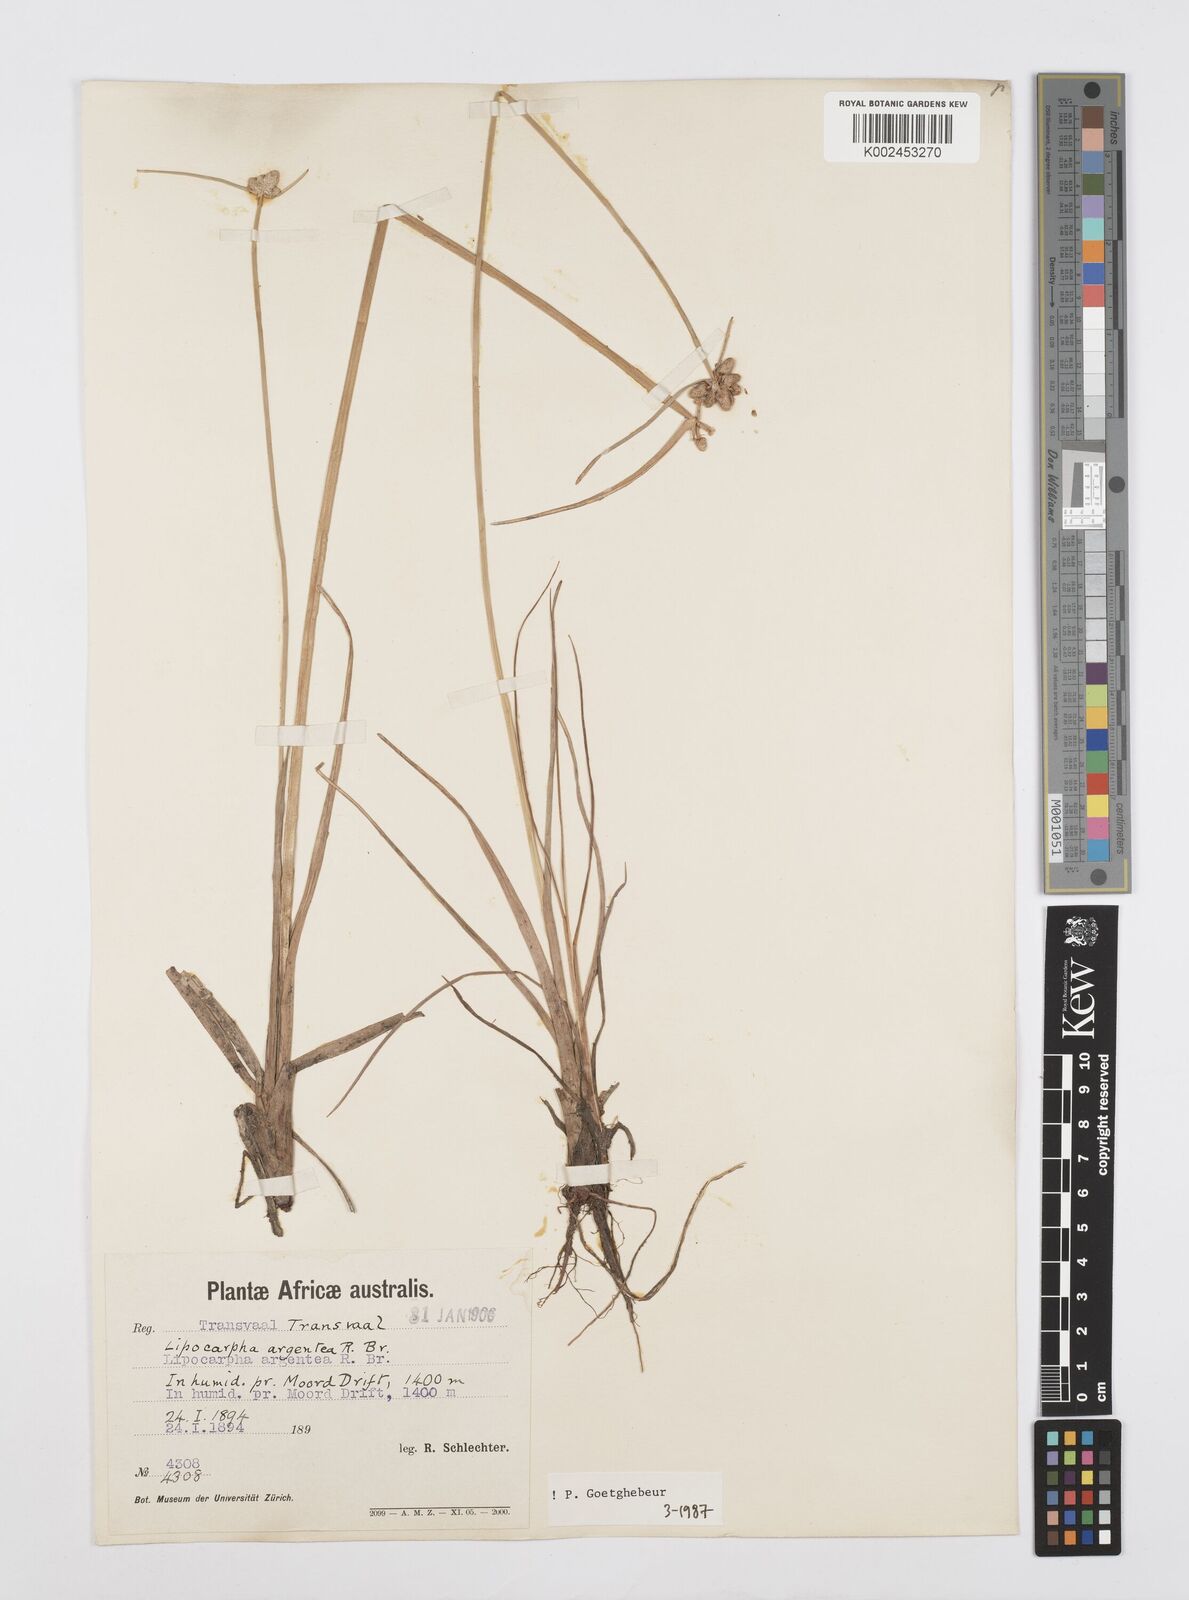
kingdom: Plantae
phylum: Tracheophyta
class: Liliopsida
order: Poales
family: Cyperaceae
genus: Cyperus
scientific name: Cyperus albescens
